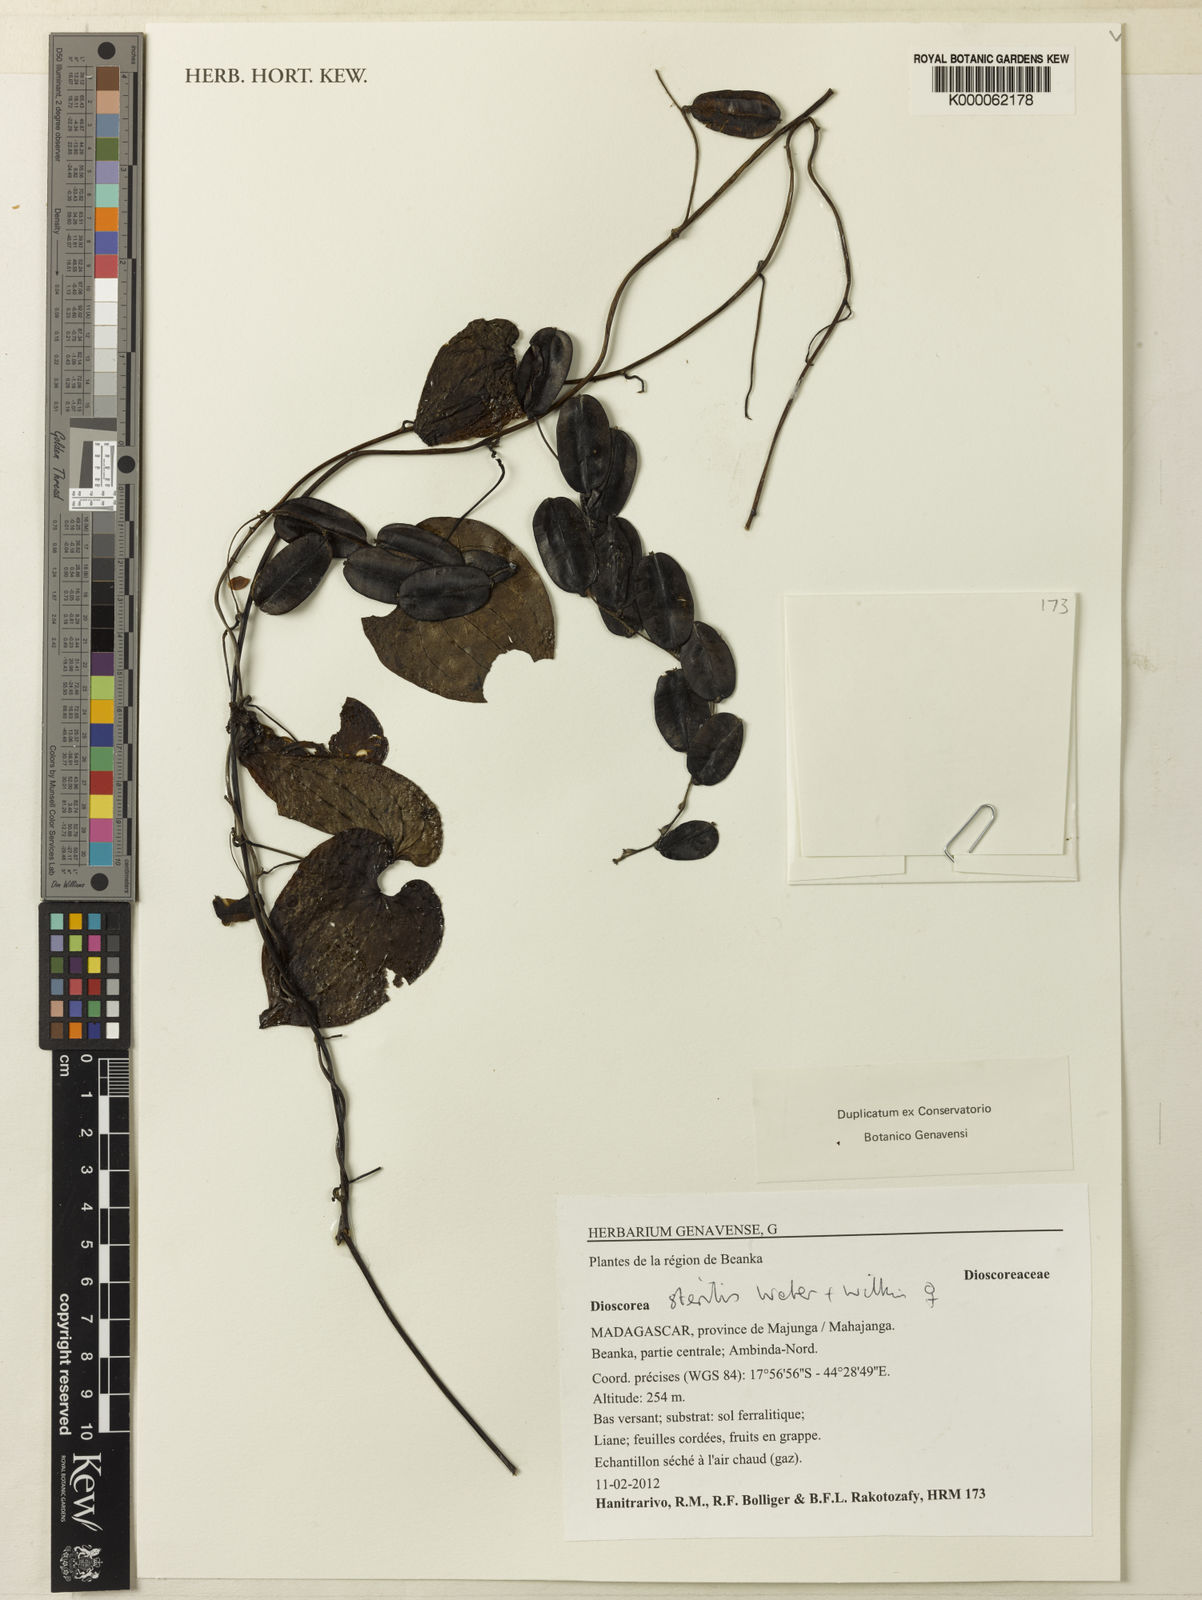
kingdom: Plantae
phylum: Tracheophyta
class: Liliopsida
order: Dioscoreales
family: Dioscoreaceae
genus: Dioscorea
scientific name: Dioscorea sterilis
